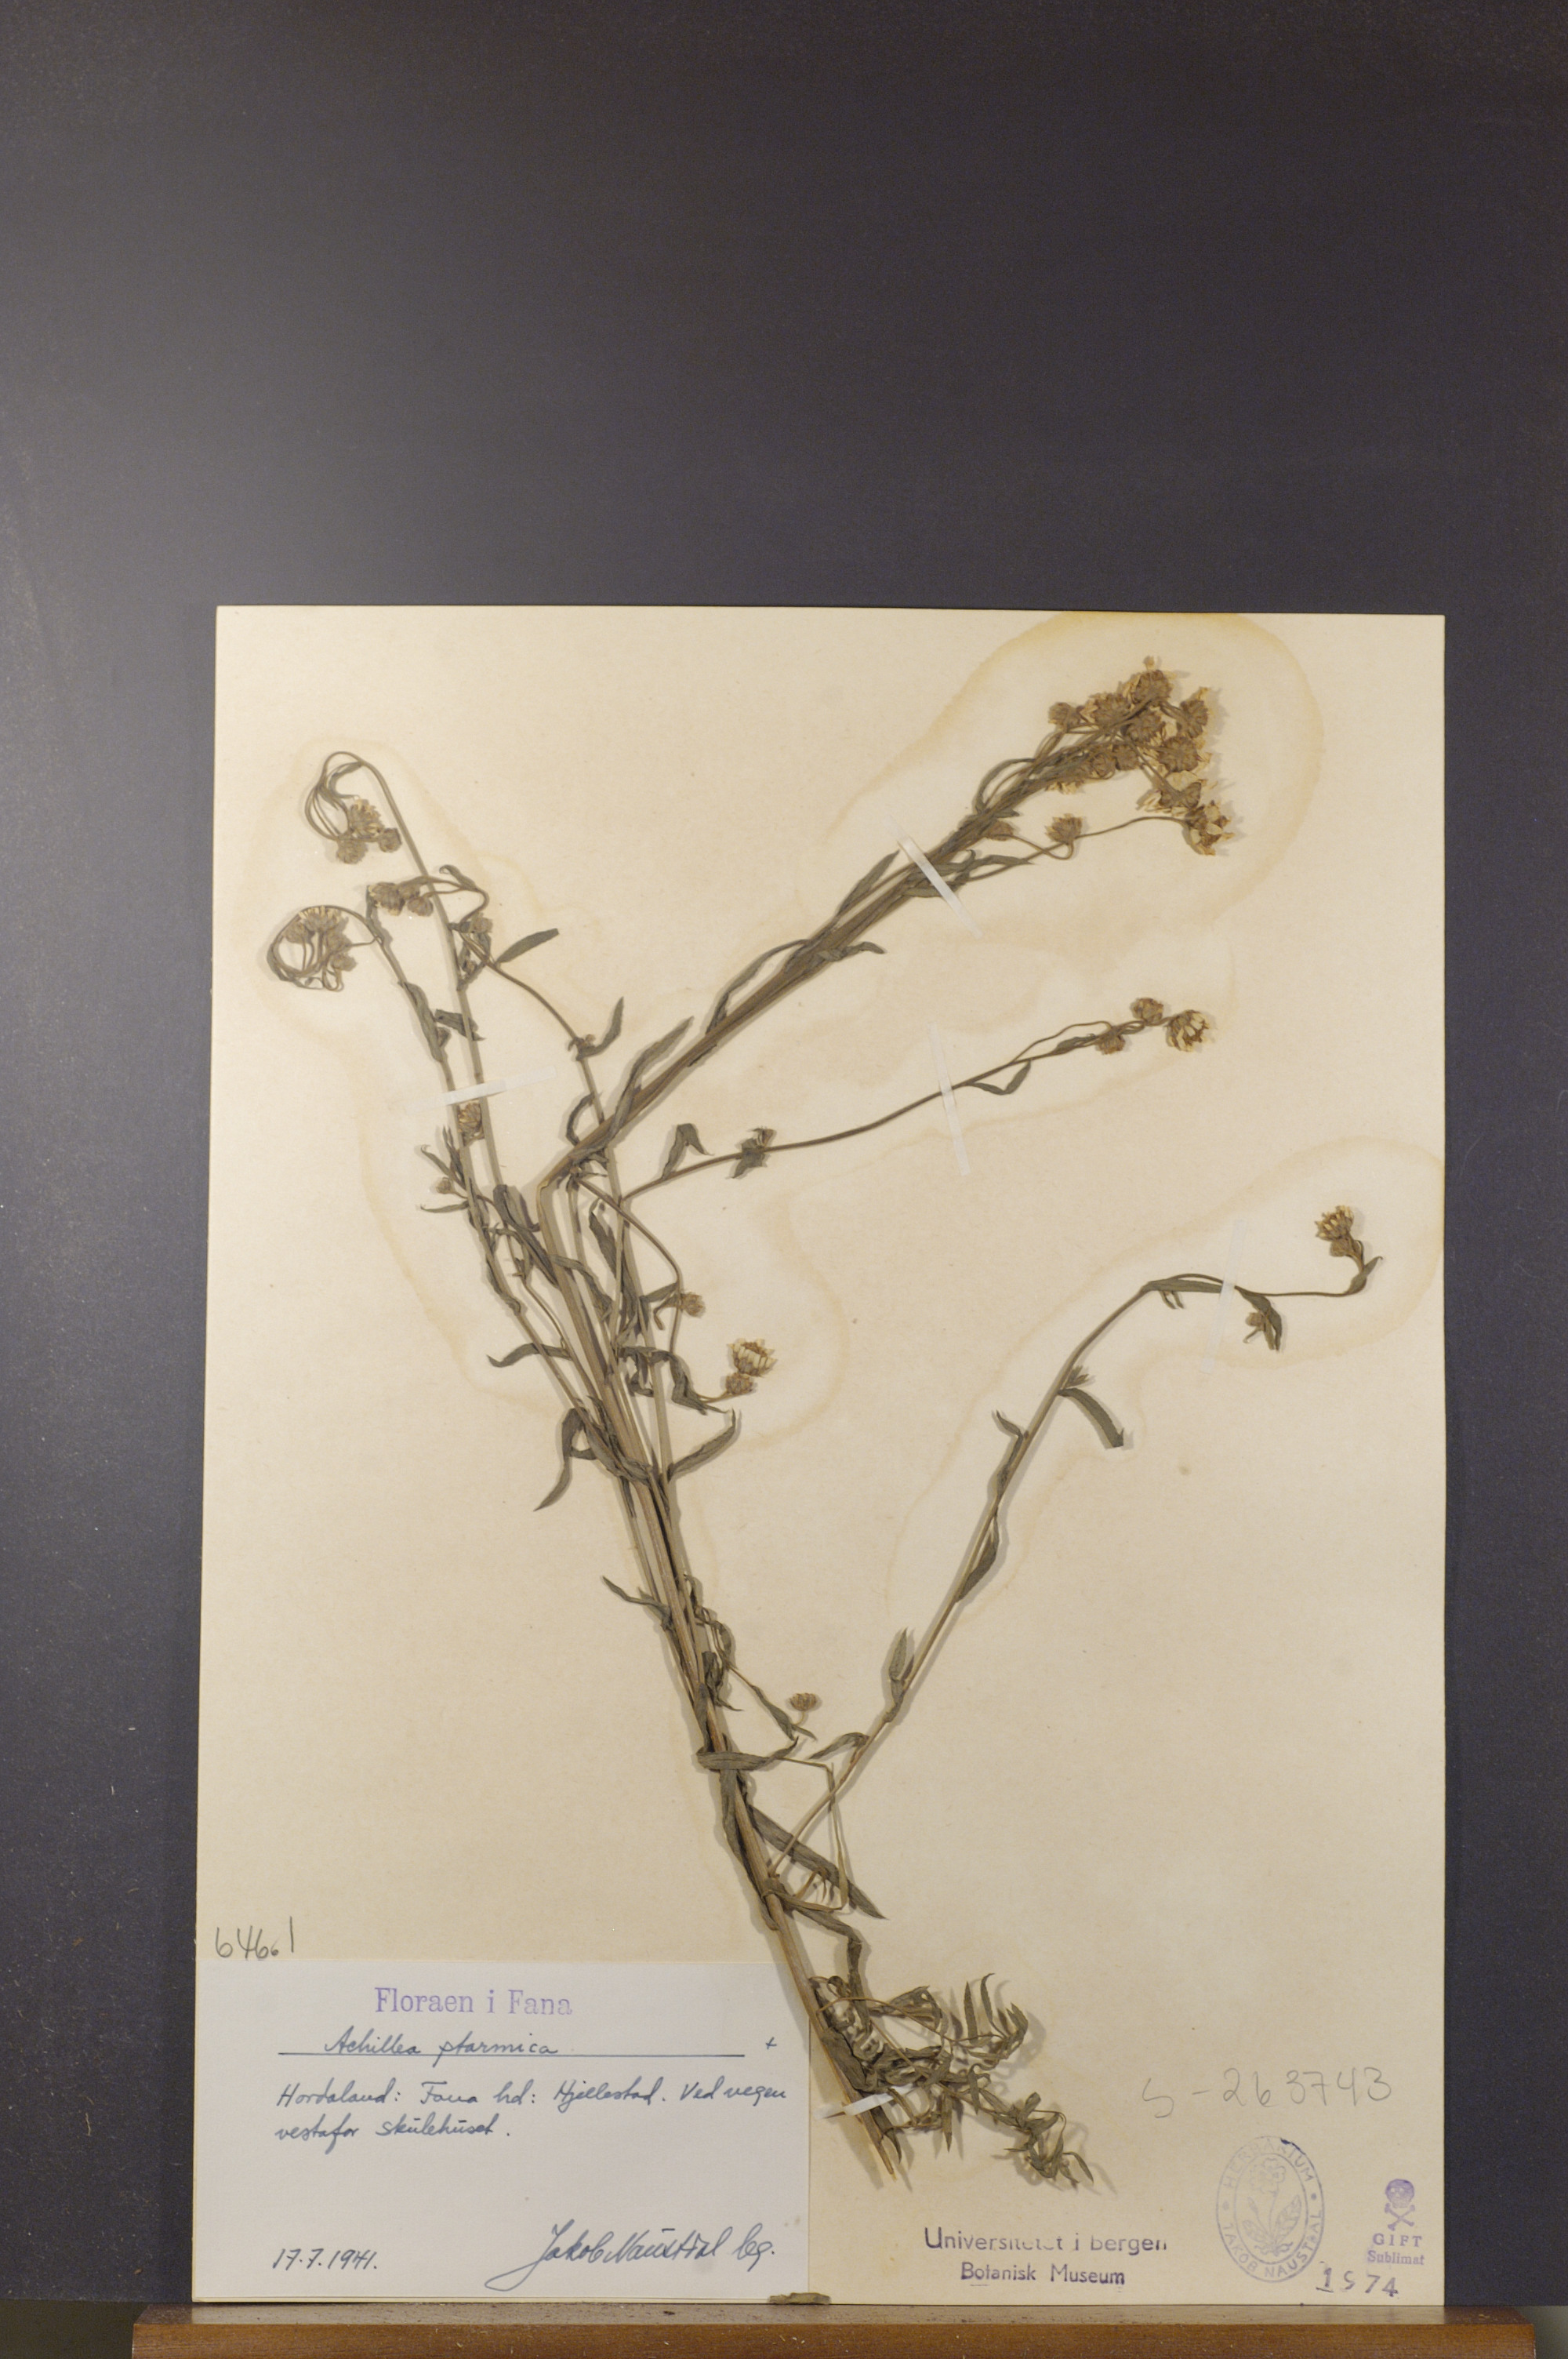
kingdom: Plantae
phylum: Tracheophyta
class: Magnoliopsida
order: Asterales
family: Asteraceae
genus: Achillea
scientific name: Achillea ptarmica
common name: Sneezeweed
